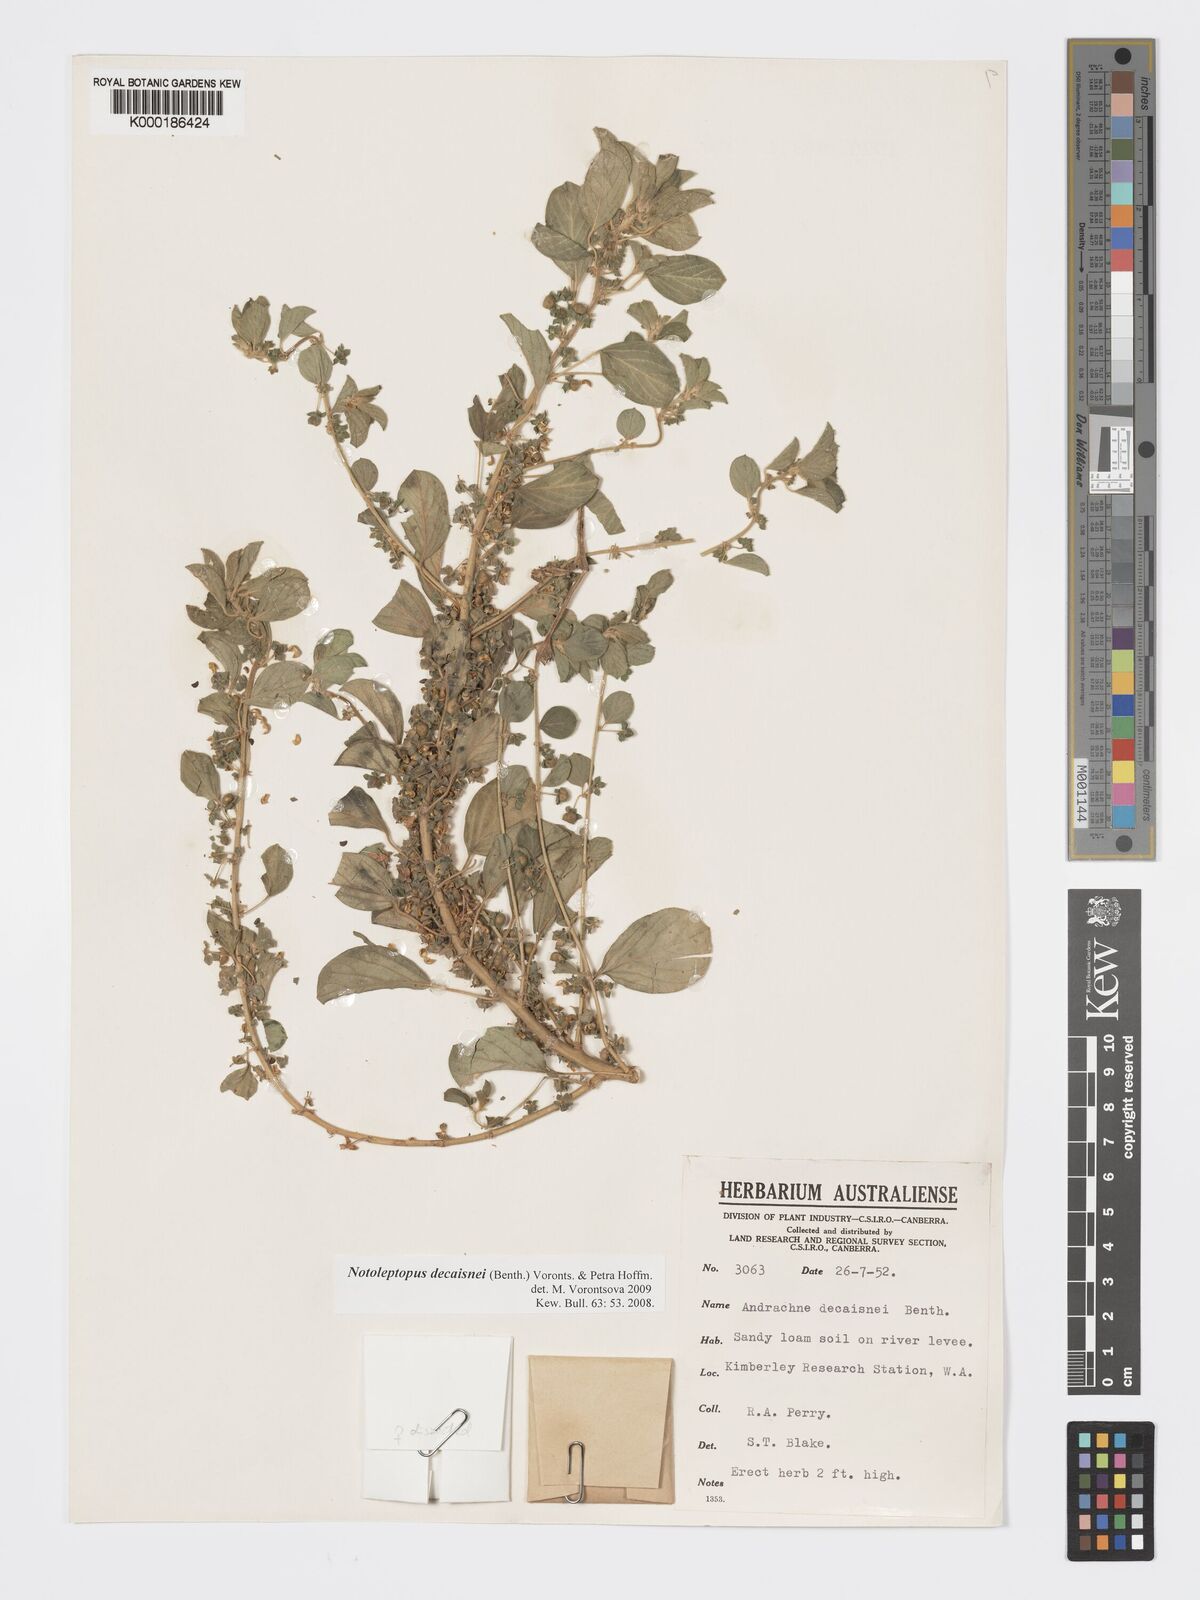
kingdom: Plantae
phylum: Tracheophyta
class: Magnoliopsida
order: Malpighiales
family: Phyllanthaceae
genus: Andrachne
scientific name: Andrachne
